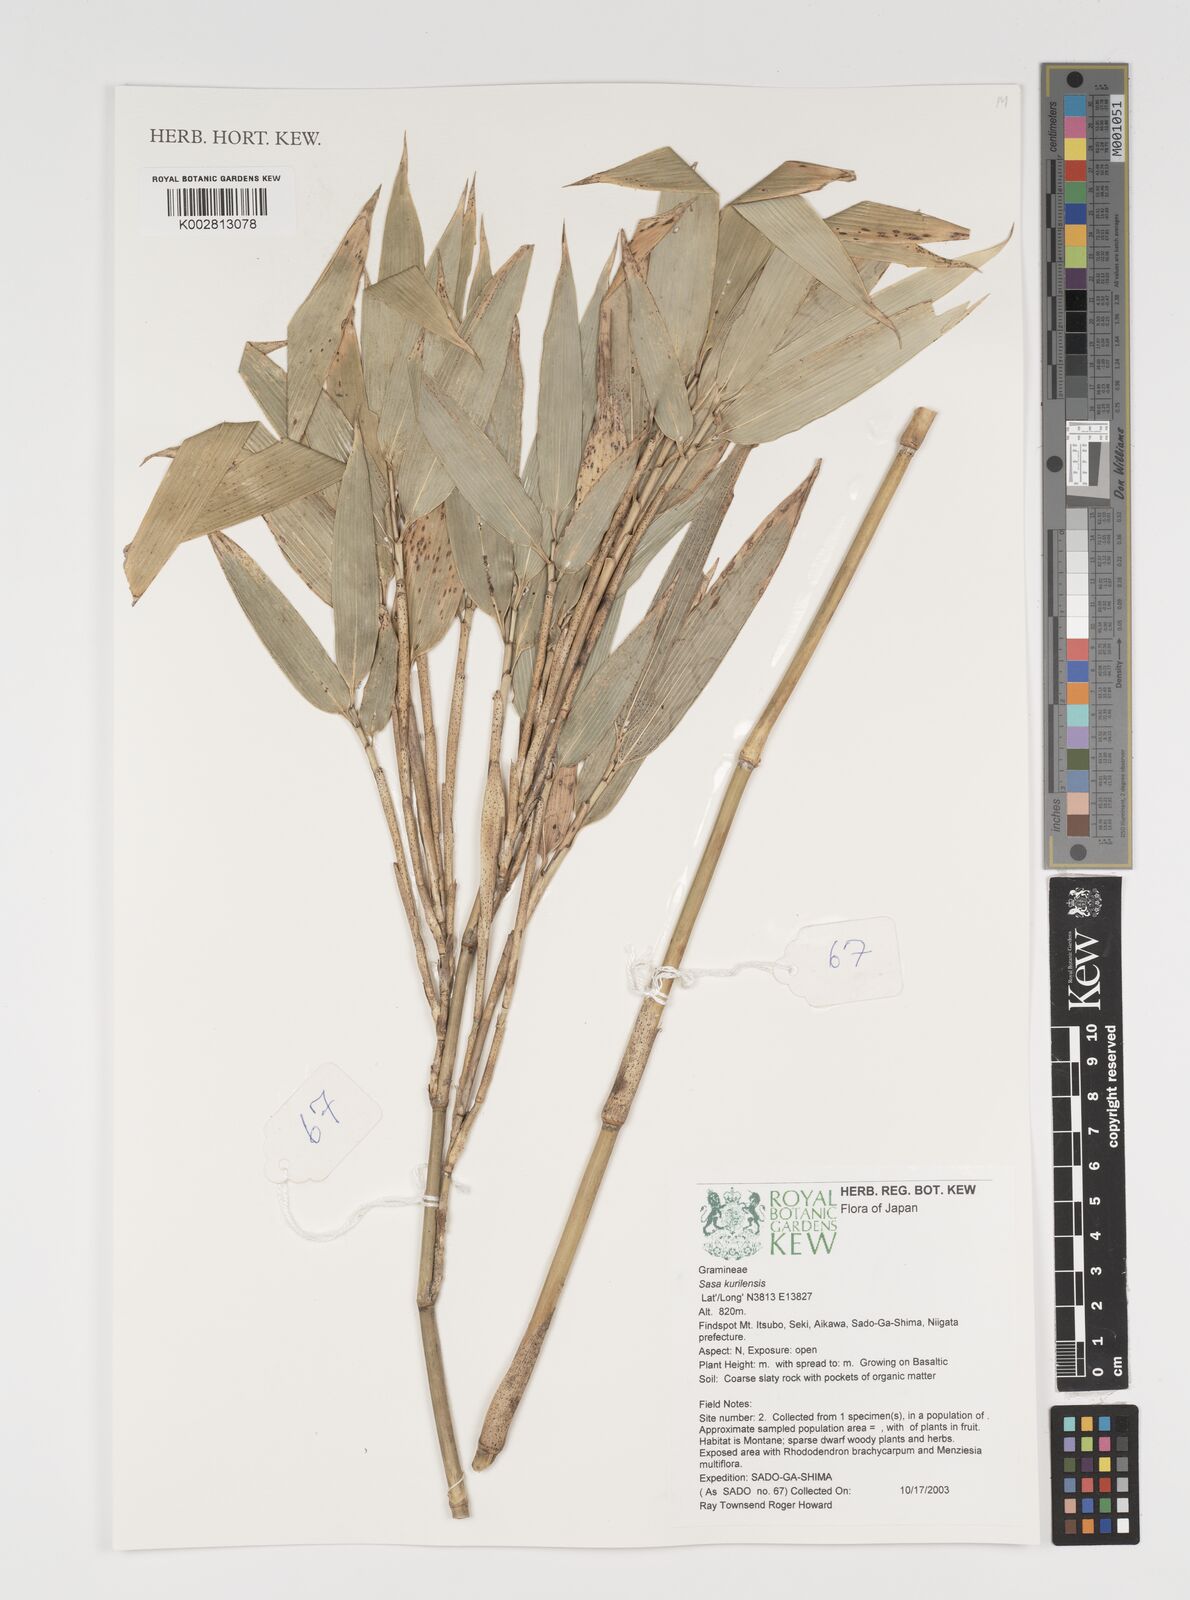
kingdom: Plantae
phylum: Tracheophyta
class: Liliopsida
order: Poales
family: Poaceae
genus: Sasa
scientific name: Sasa kurilensis
